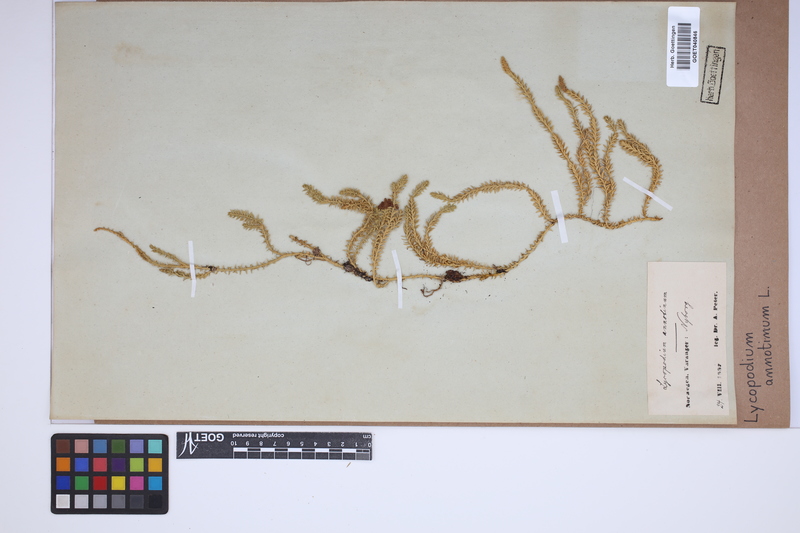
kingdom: Plantae
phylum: Tracheophyta
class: Lycopodiopsida
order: Lycopodiales
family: Lycopodiaceae
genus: Spinulum
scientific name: Spinulum annotinum
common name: Interrupted club-moss
